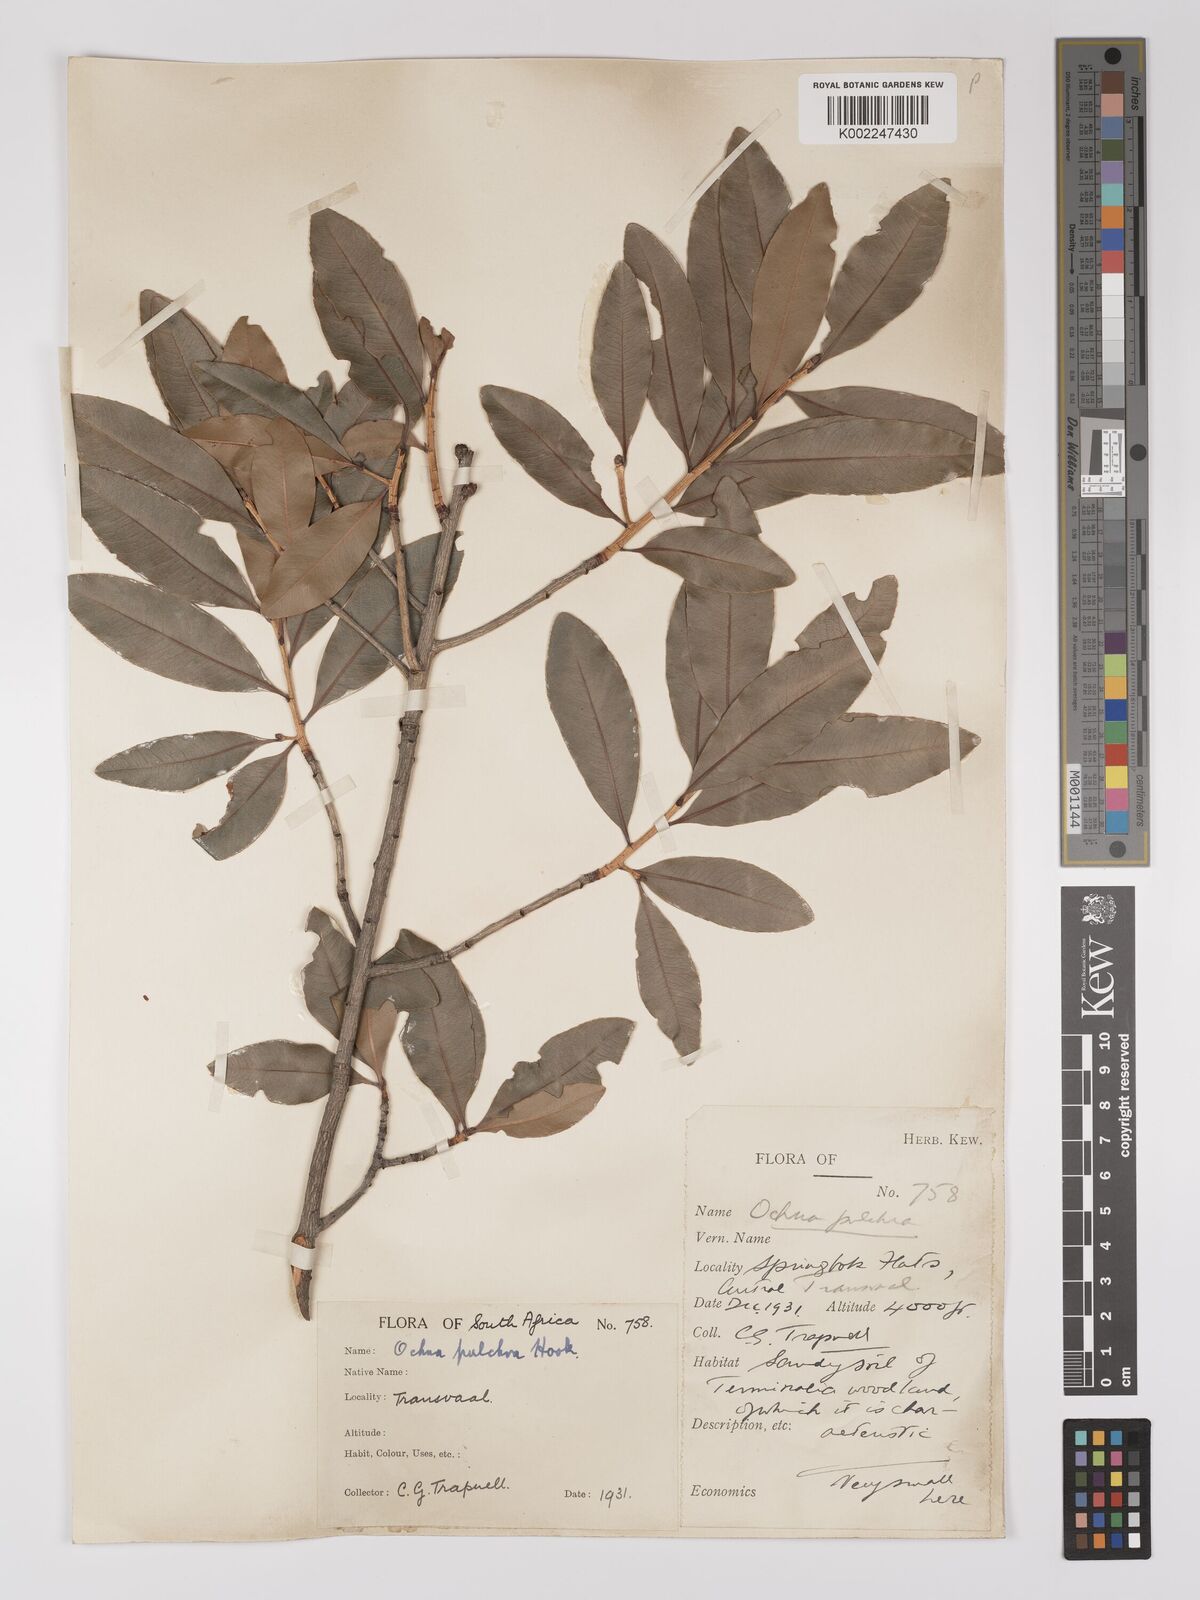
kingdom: Plantae
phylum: Tracheophyta
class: Magnoliopsida
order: Malpighiales
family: Ochnaceae
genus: Ochna
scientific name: Ochna pulchra
